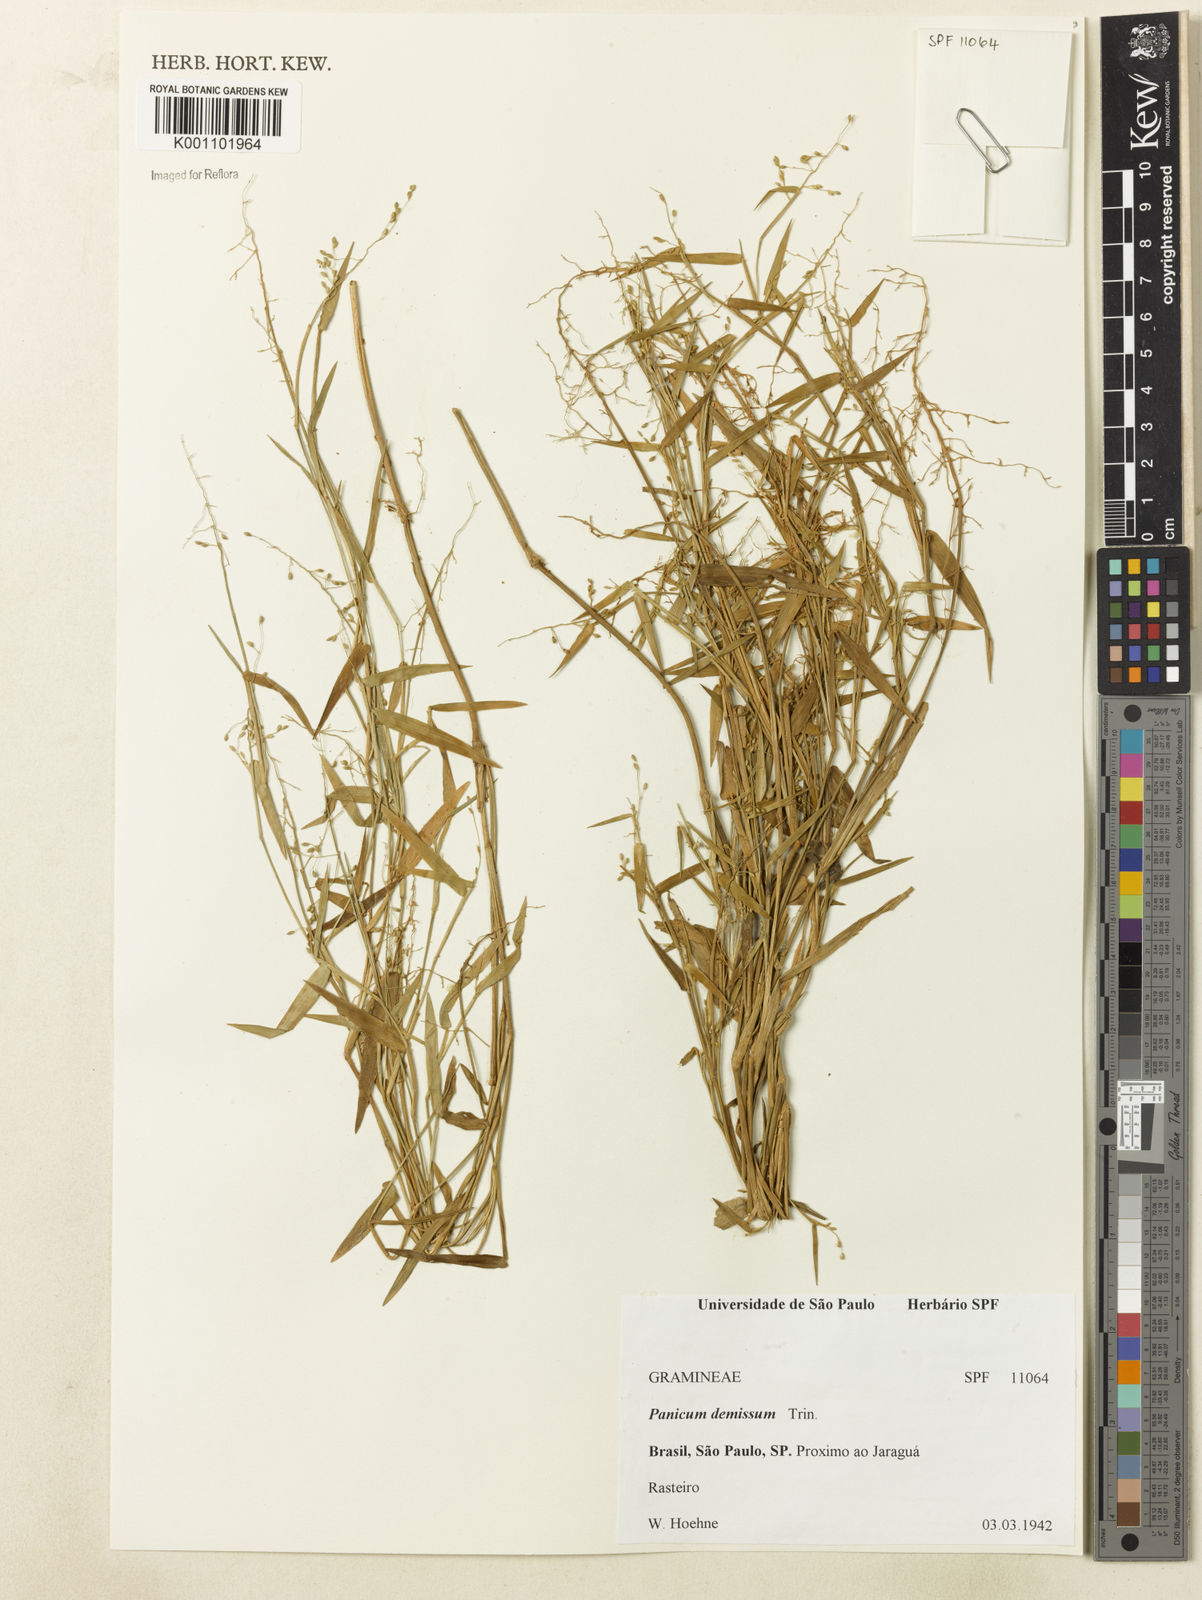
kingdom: Plantae
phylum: Tracheophyta
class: Liliopsida
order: Poales
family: Poaceae
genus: Dichanthelium
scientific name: Dichanthelium sabulorum
